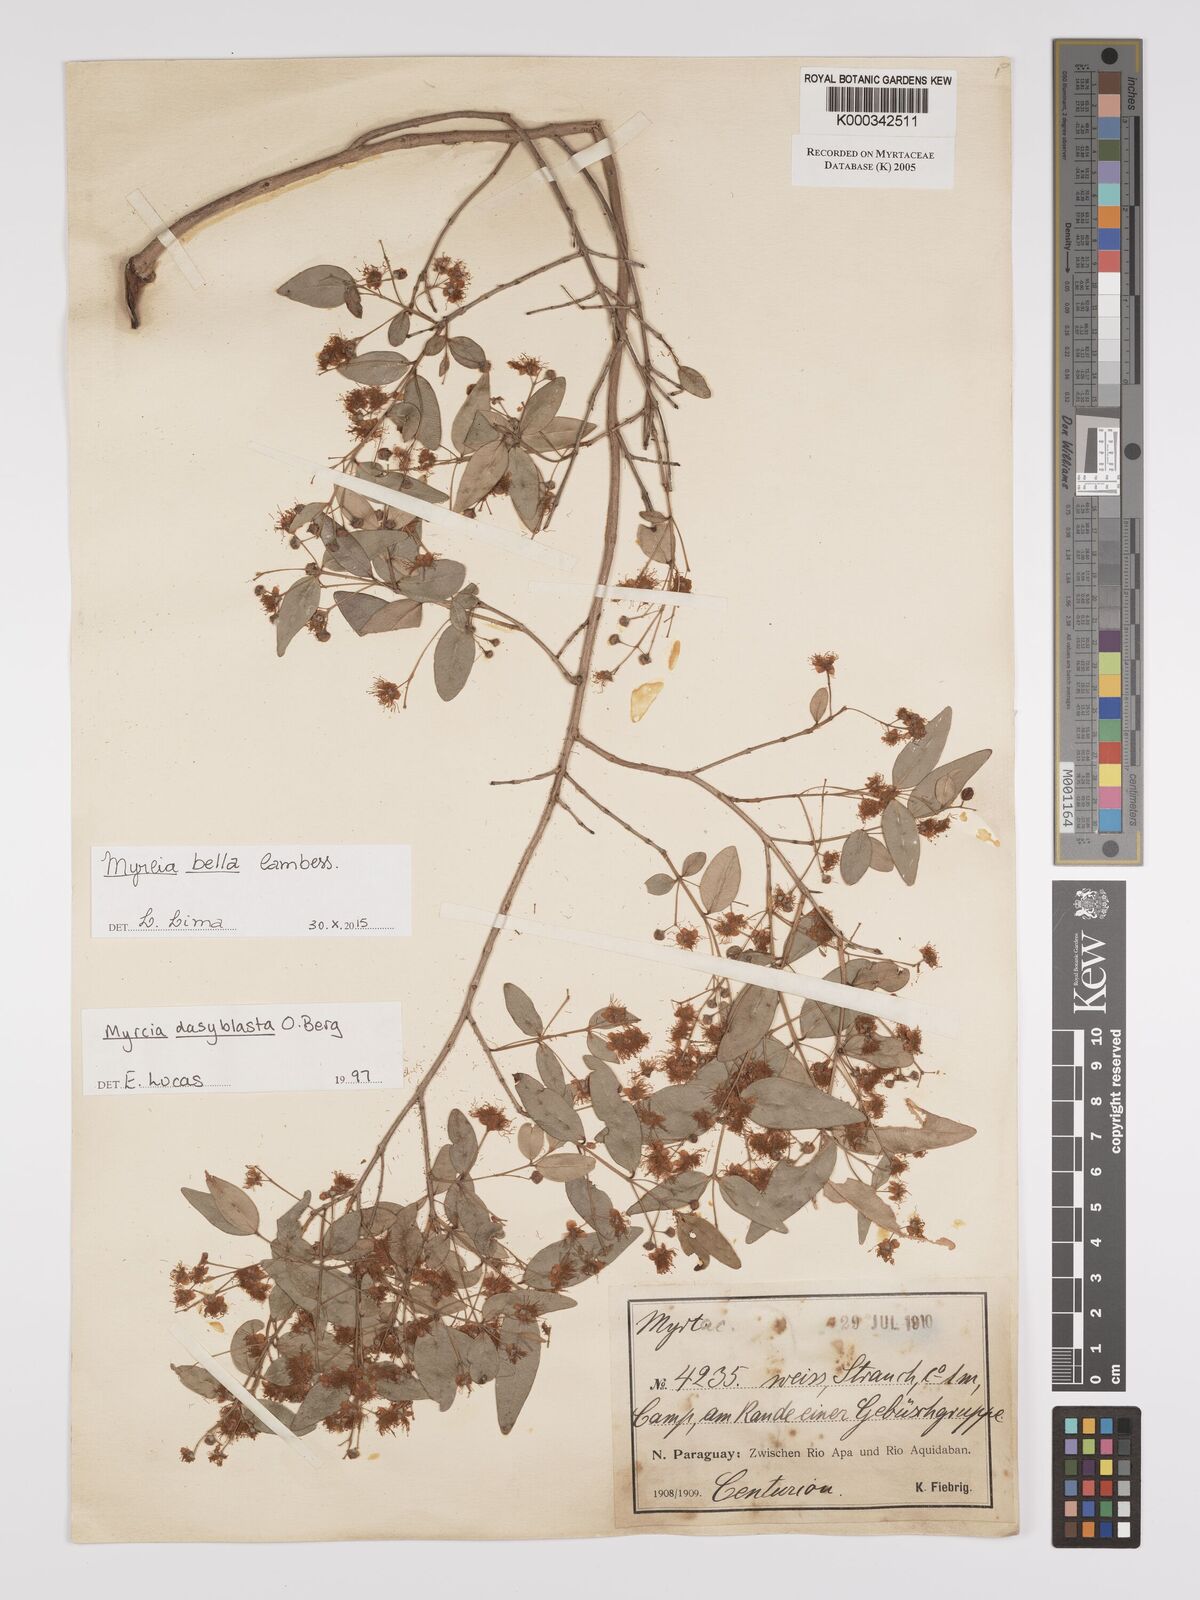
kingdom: Plantae
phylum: Tracheophyta
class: Magnoliopsida
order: Myrtales
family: Myrtaceae
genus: Myrcia
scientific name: Myrcia dasyblasta
